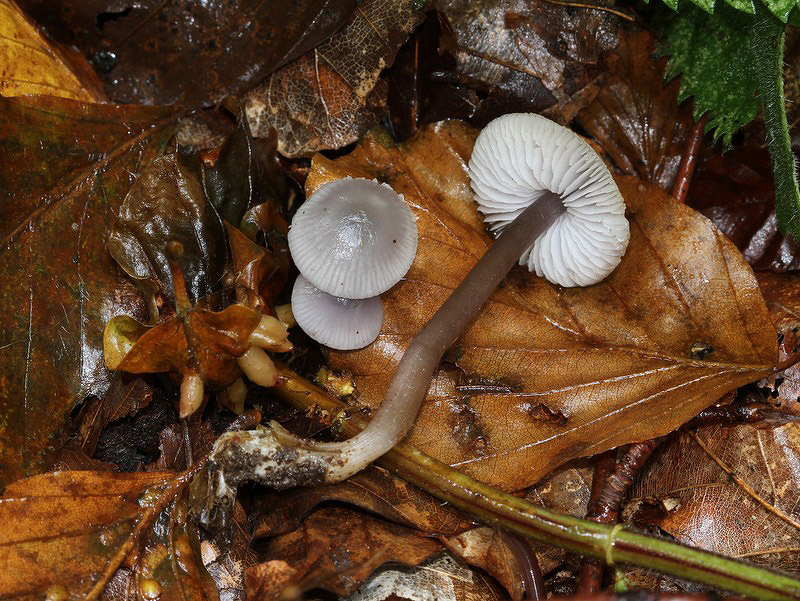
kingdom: Fungi
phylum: Basidiomycota
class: Agaricomycetes
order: Agaricales
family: Mycenaceae
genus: Mycena
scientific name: Mycena pura
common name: Lilac bonnet
